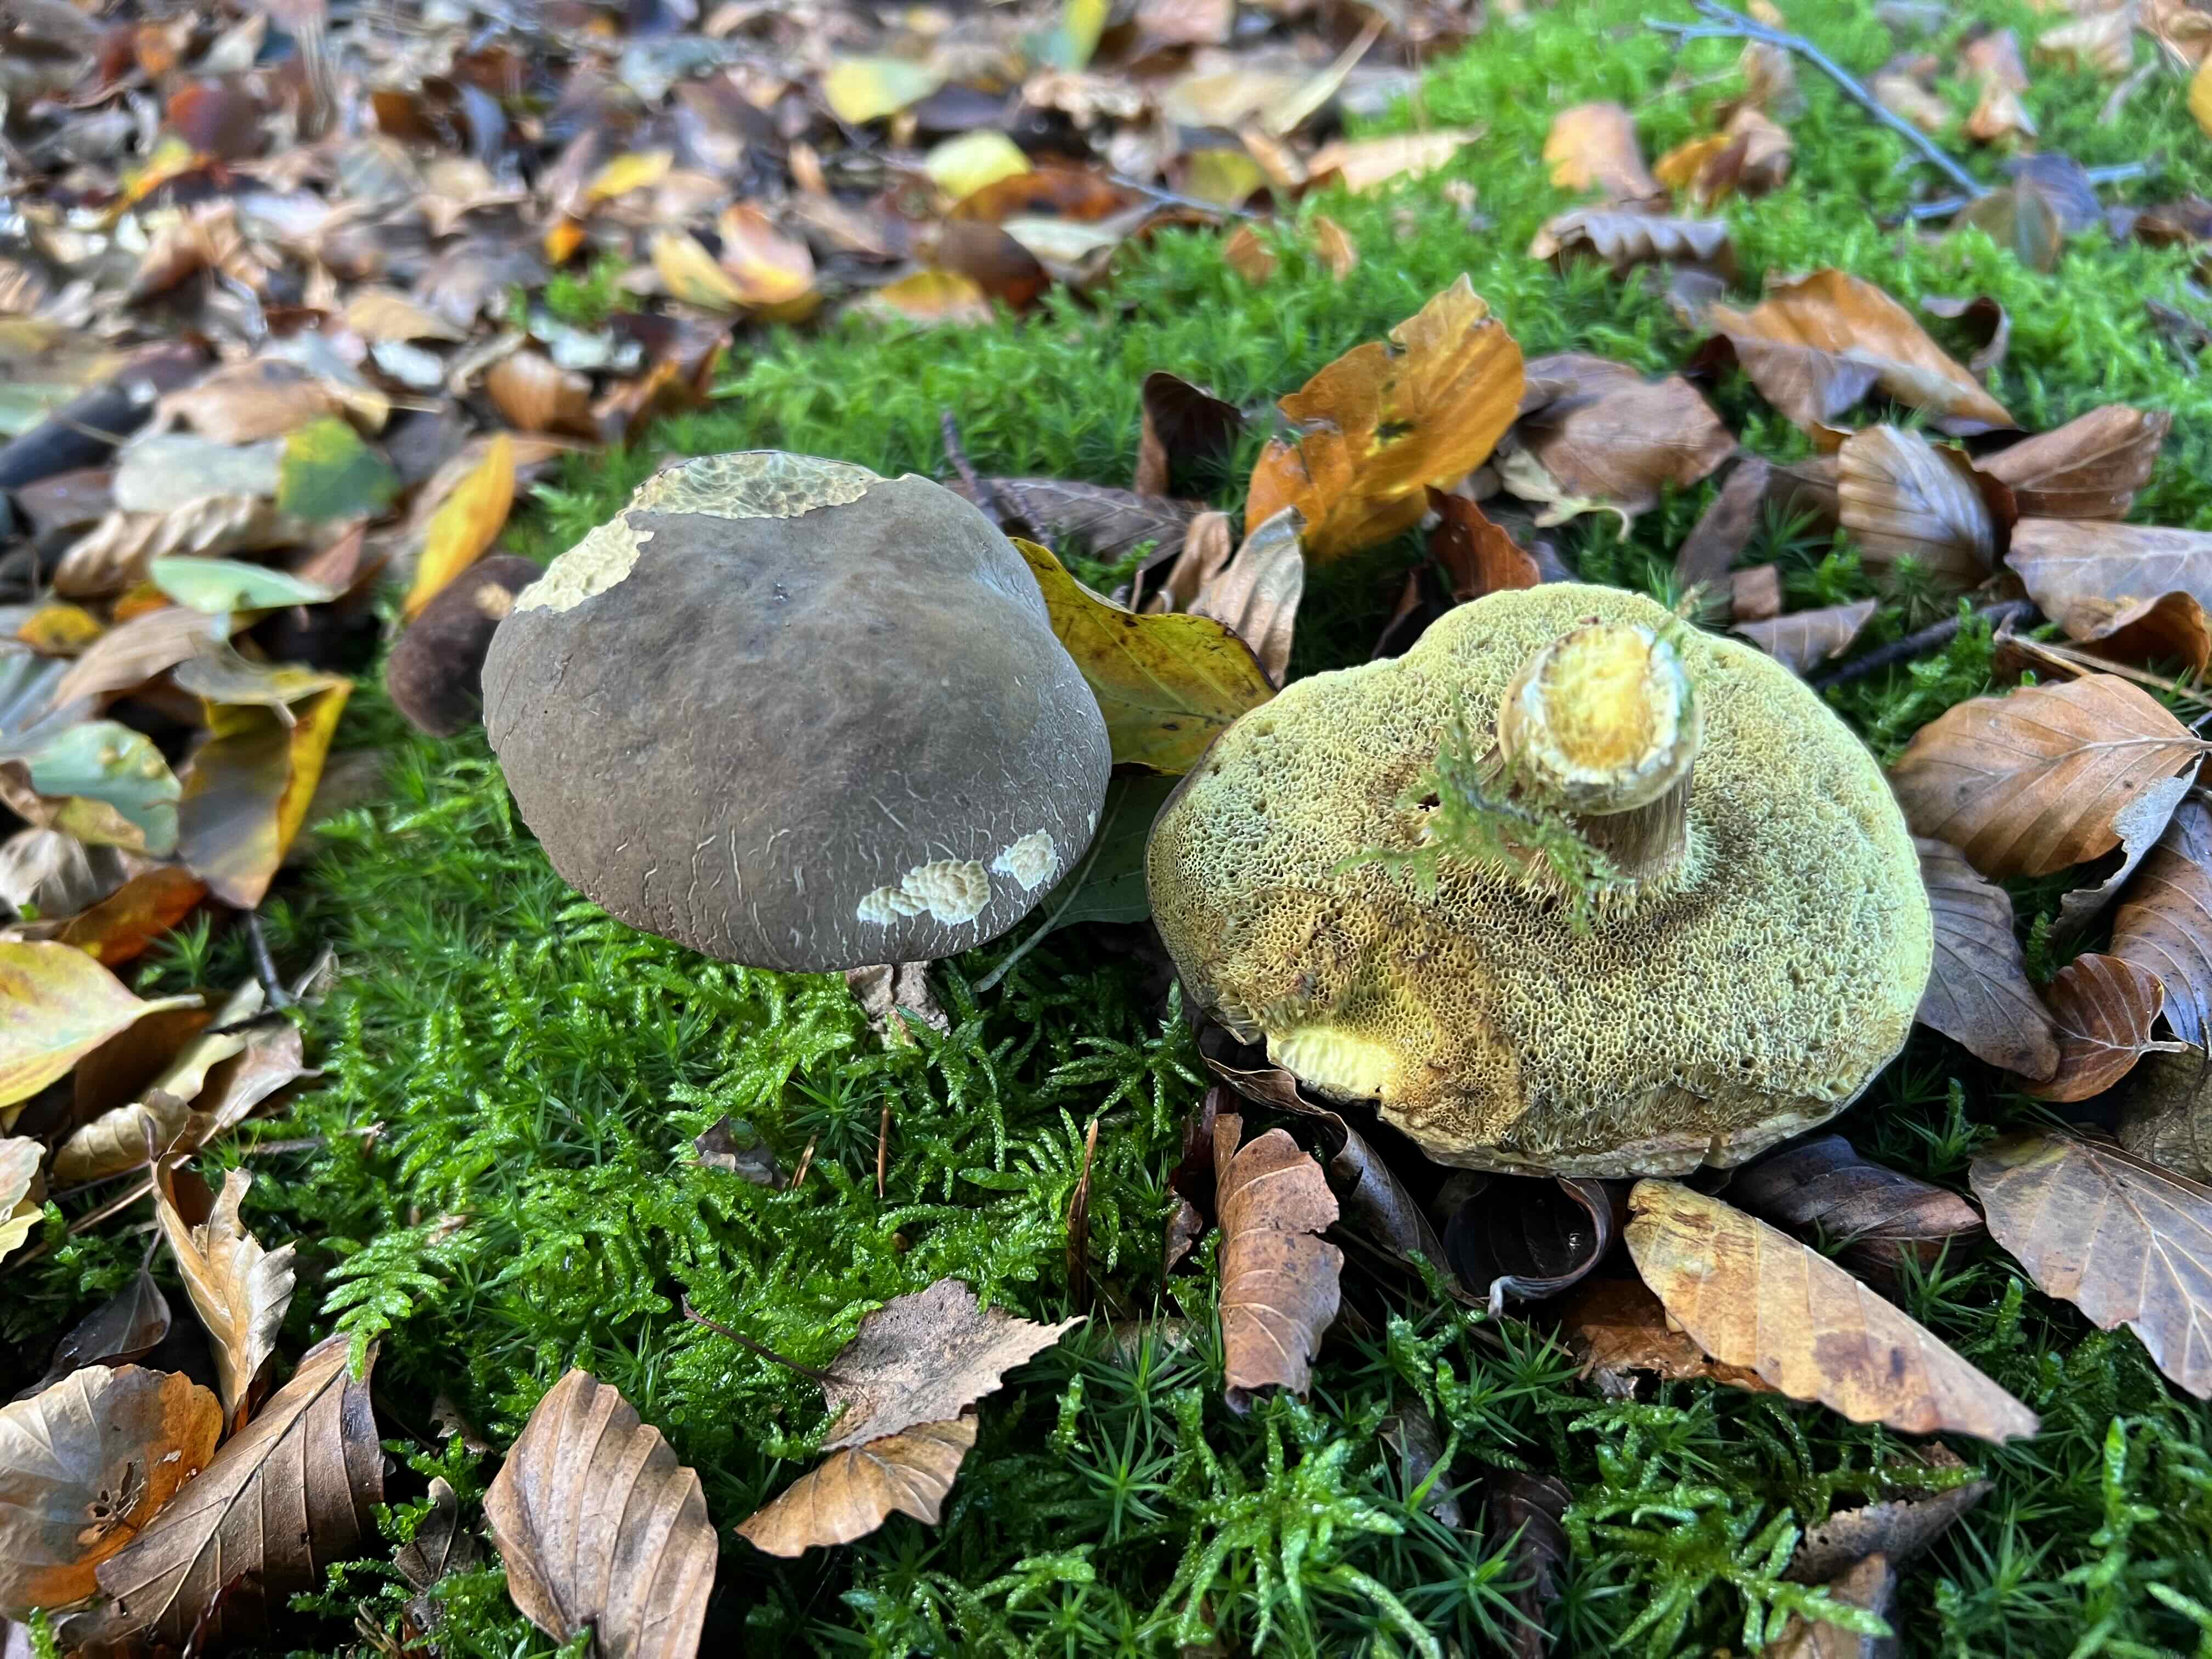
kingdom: Fungi
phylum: Basidiomycota
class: Agaricomycetes
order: Boletales
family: Boletaceae
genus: Xerocomellus
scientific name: Xerocomellus
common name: dværgrørhat
